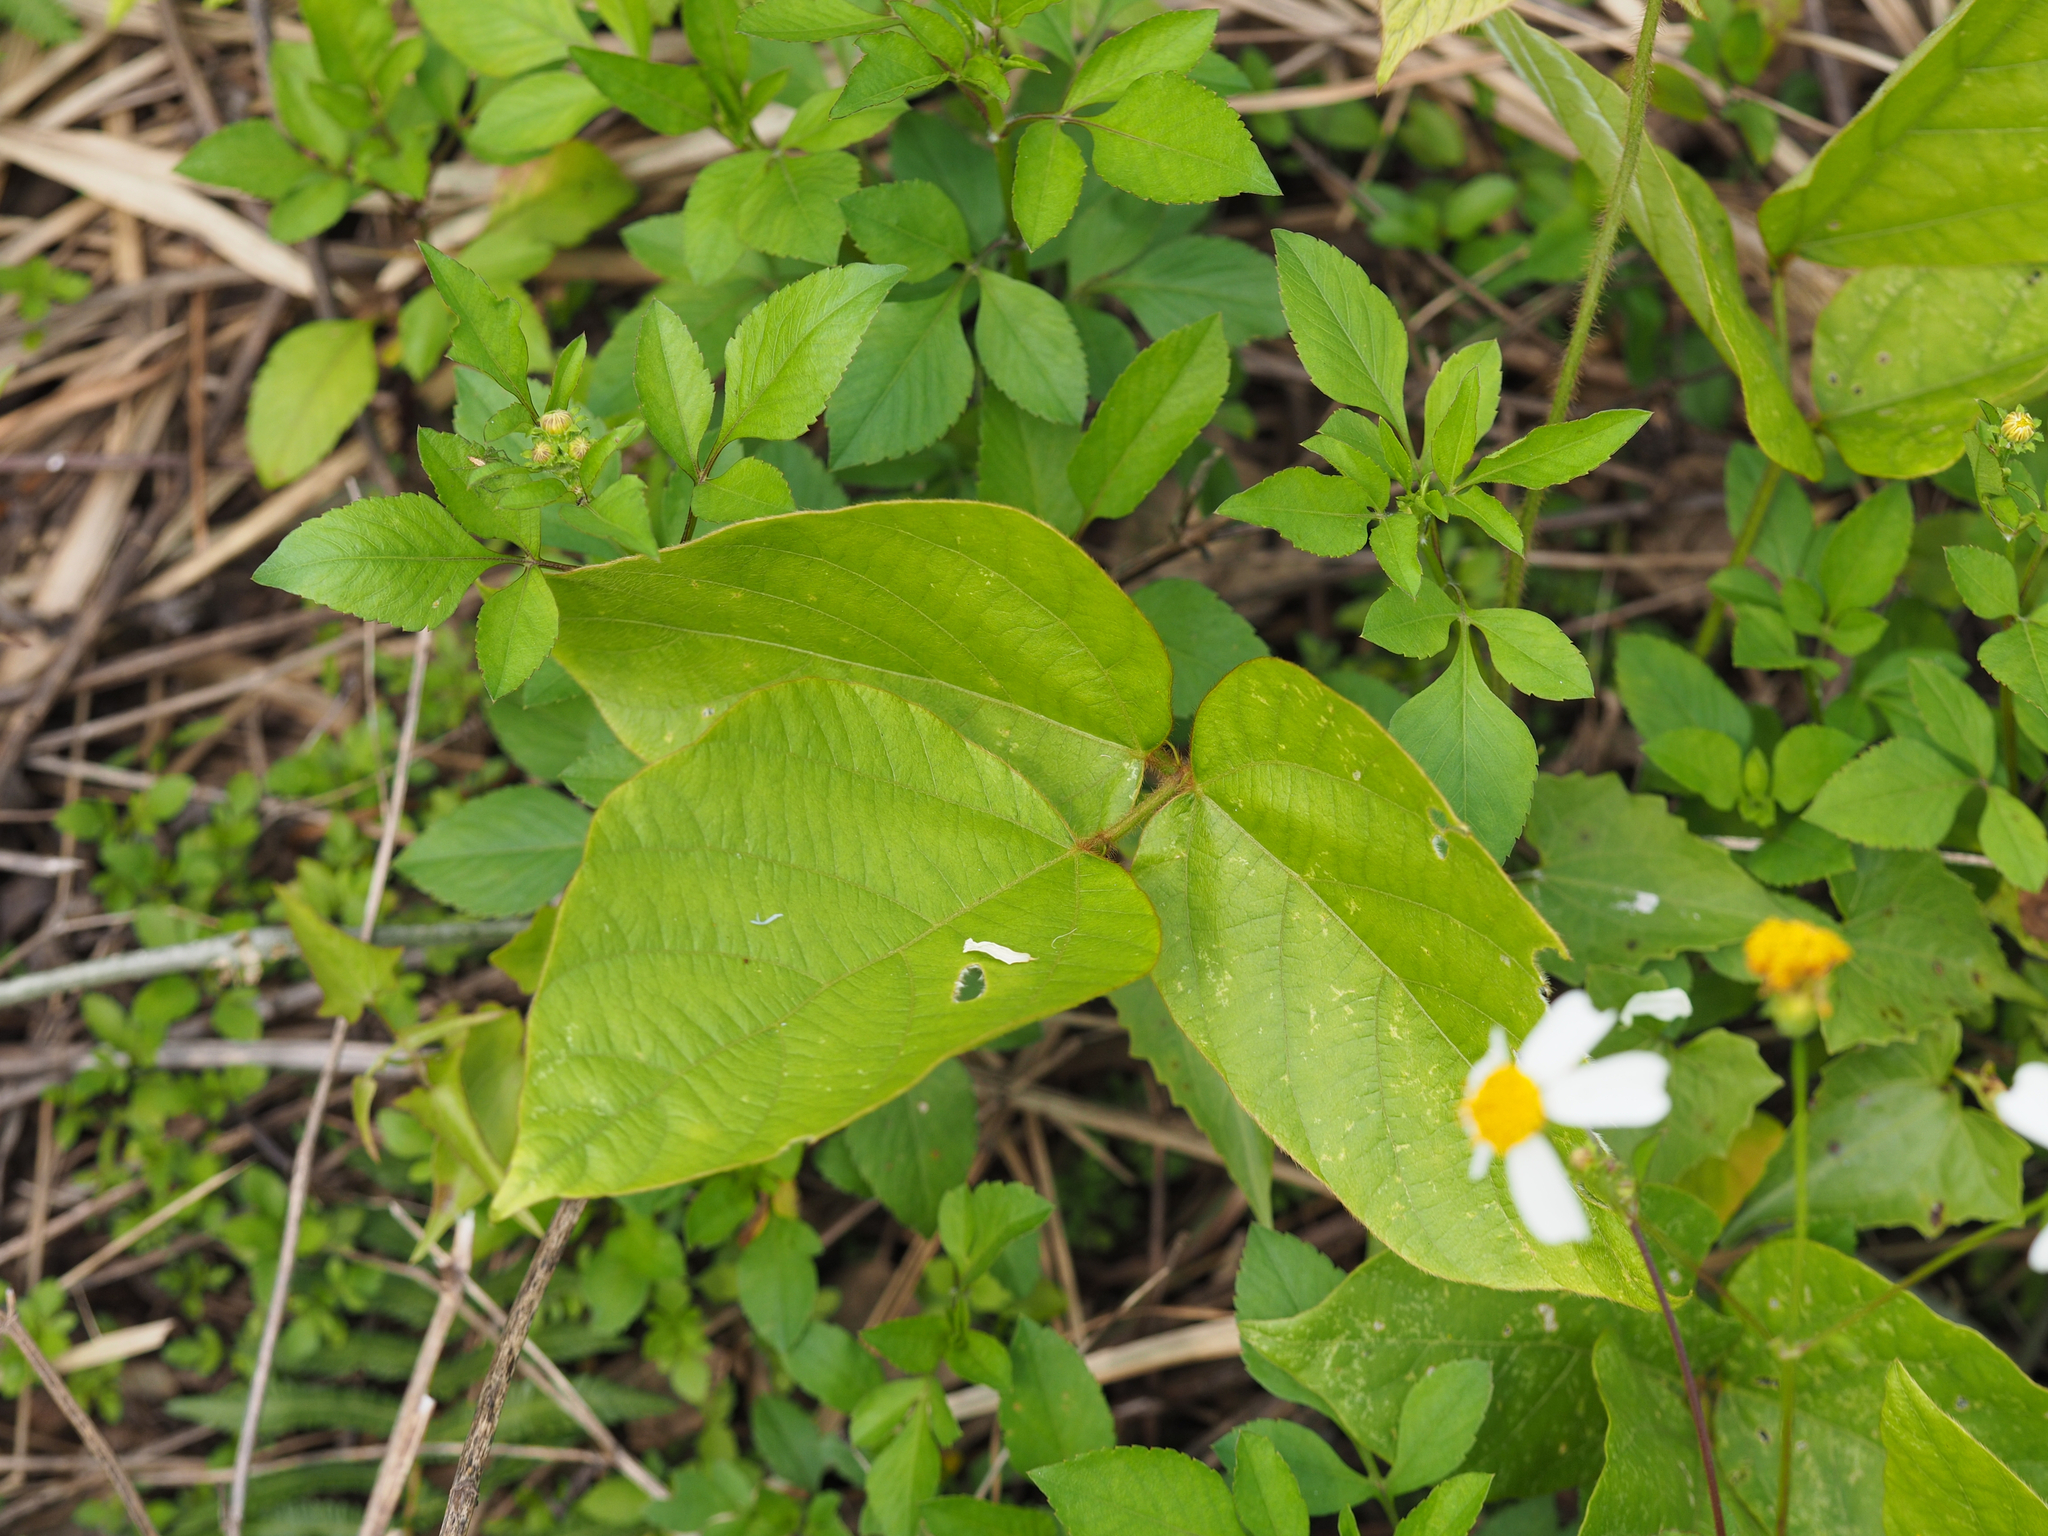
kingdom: Plantae
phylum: Tracheophyta
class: Magnoliopsida
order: Fabales
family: Fabaceae
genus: Pueraria
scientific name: Pueraria montana
